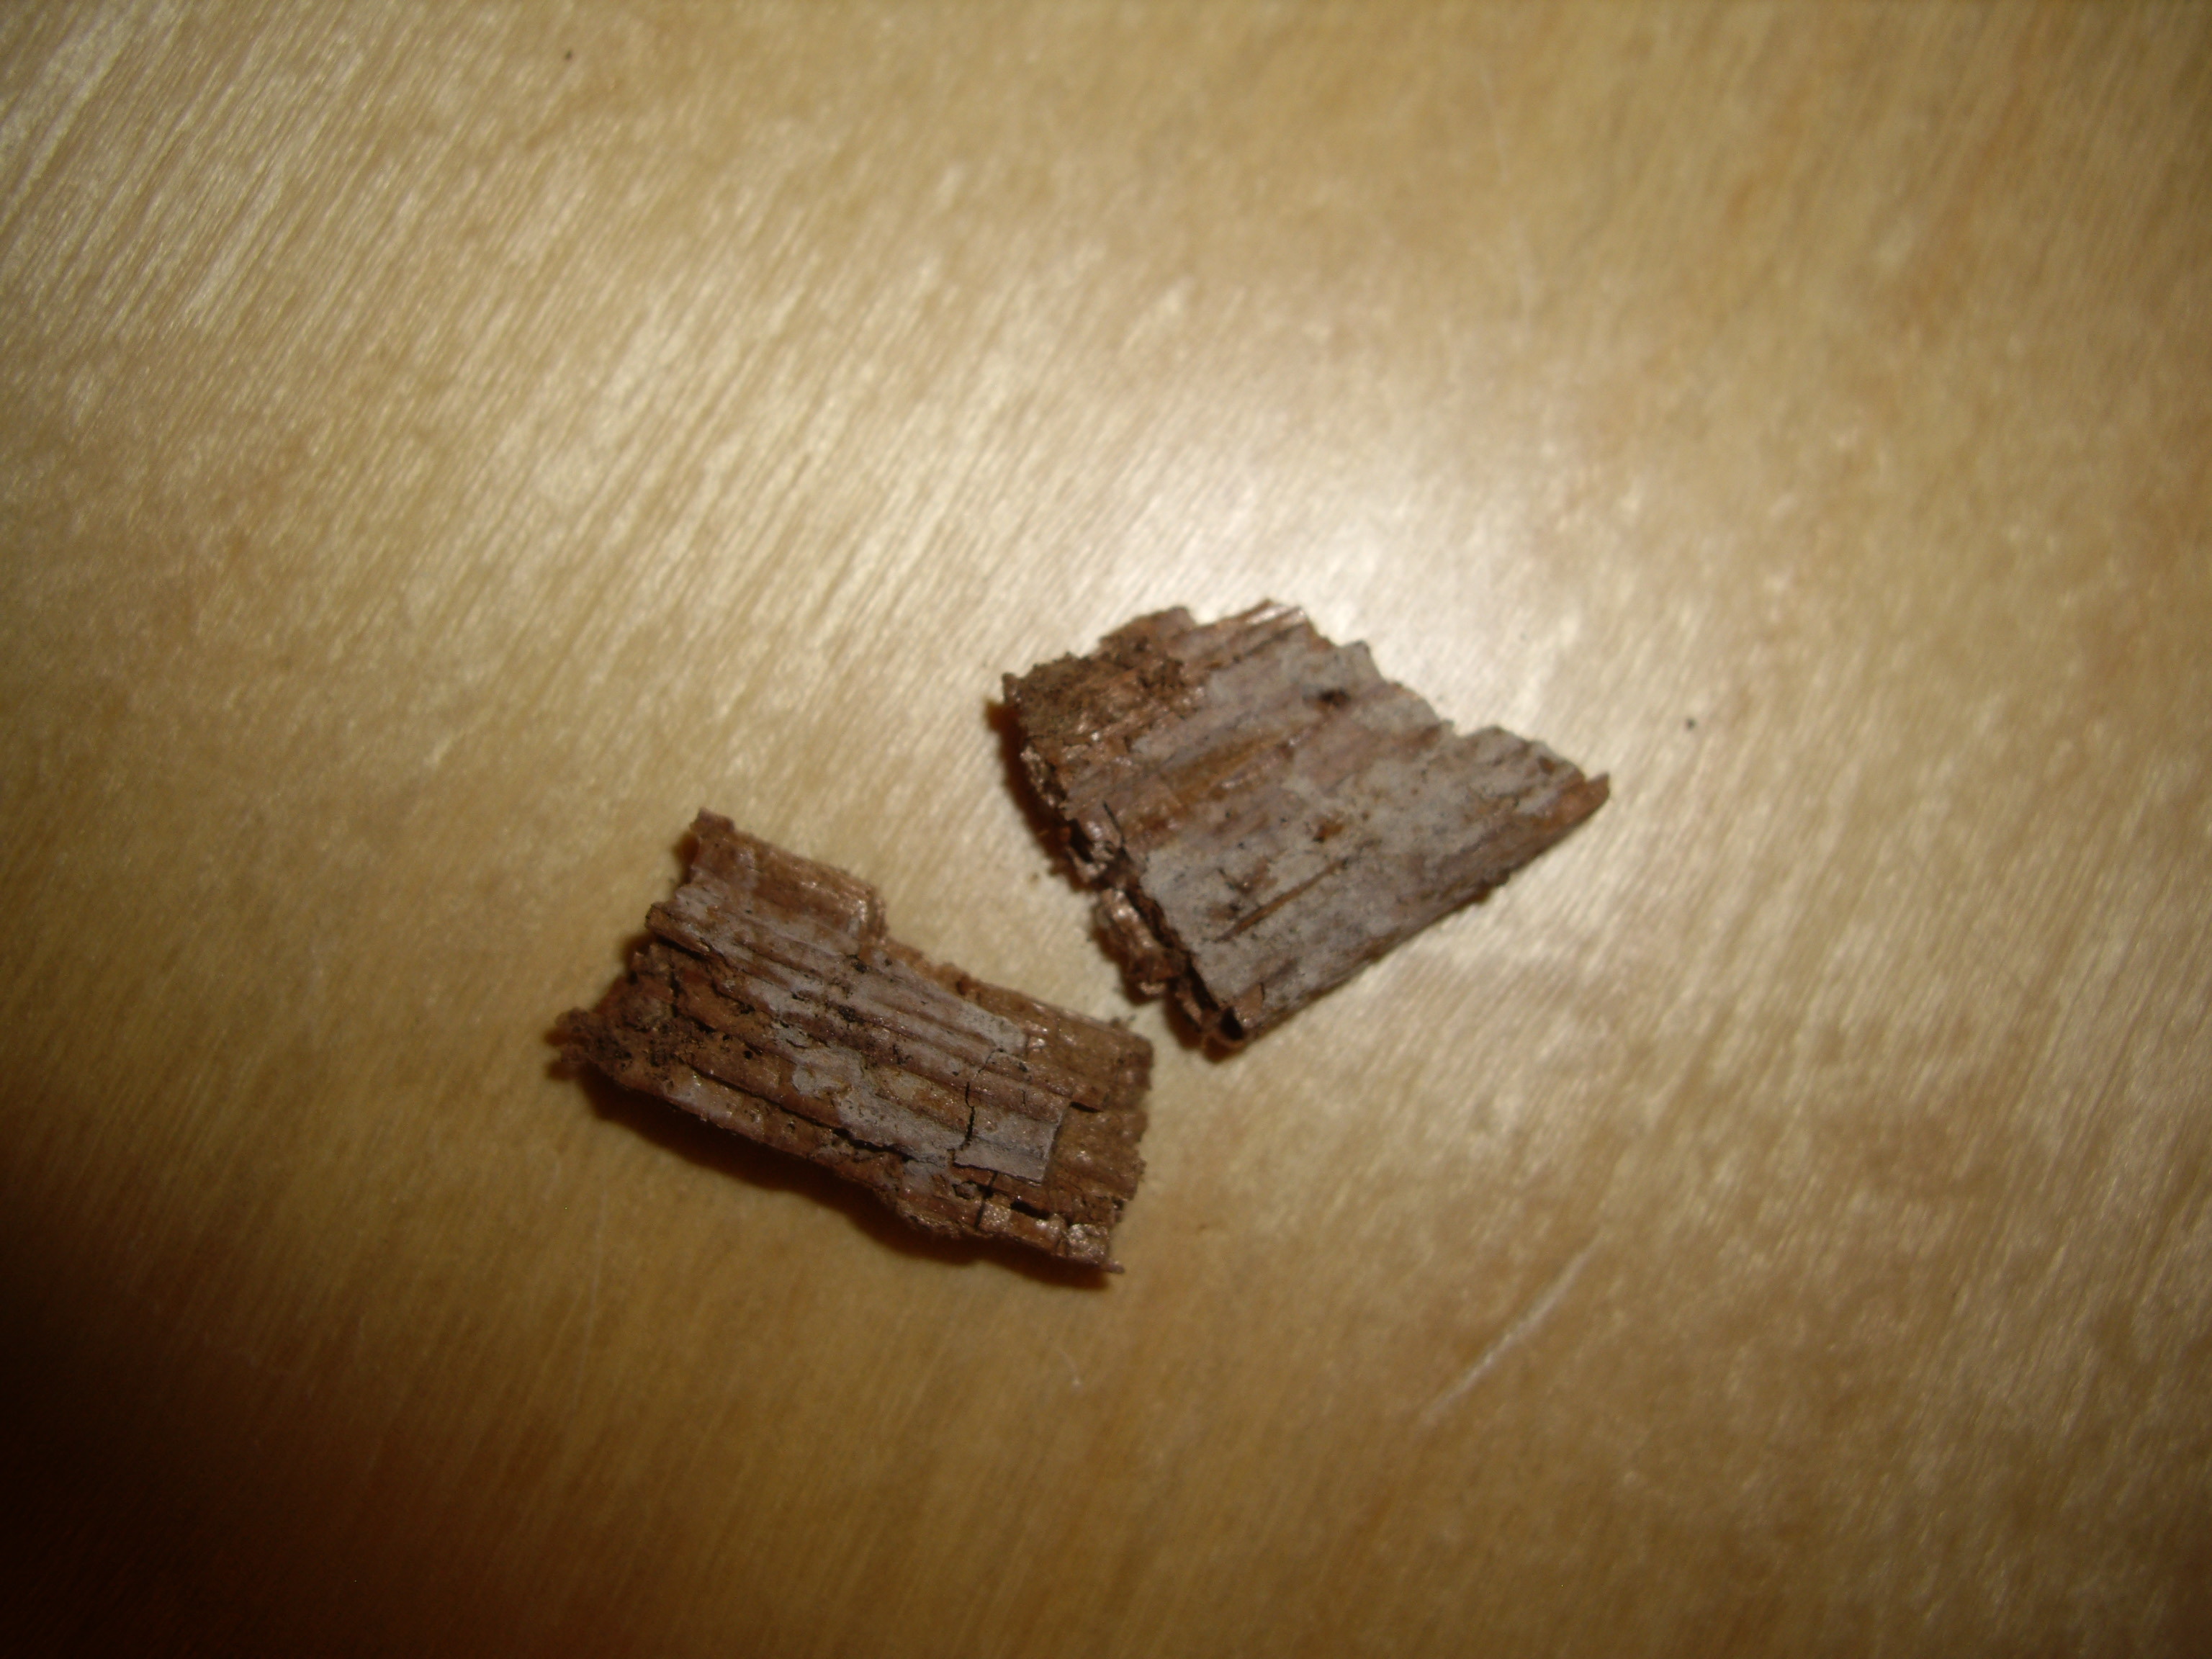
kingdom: Fungi
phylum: Basidiomycota
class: Agaricomycetes
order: Hymenochaetales
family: Hymenochaetaceae
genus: Tubulicrinis
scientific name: Tubulicrinis inornatus
